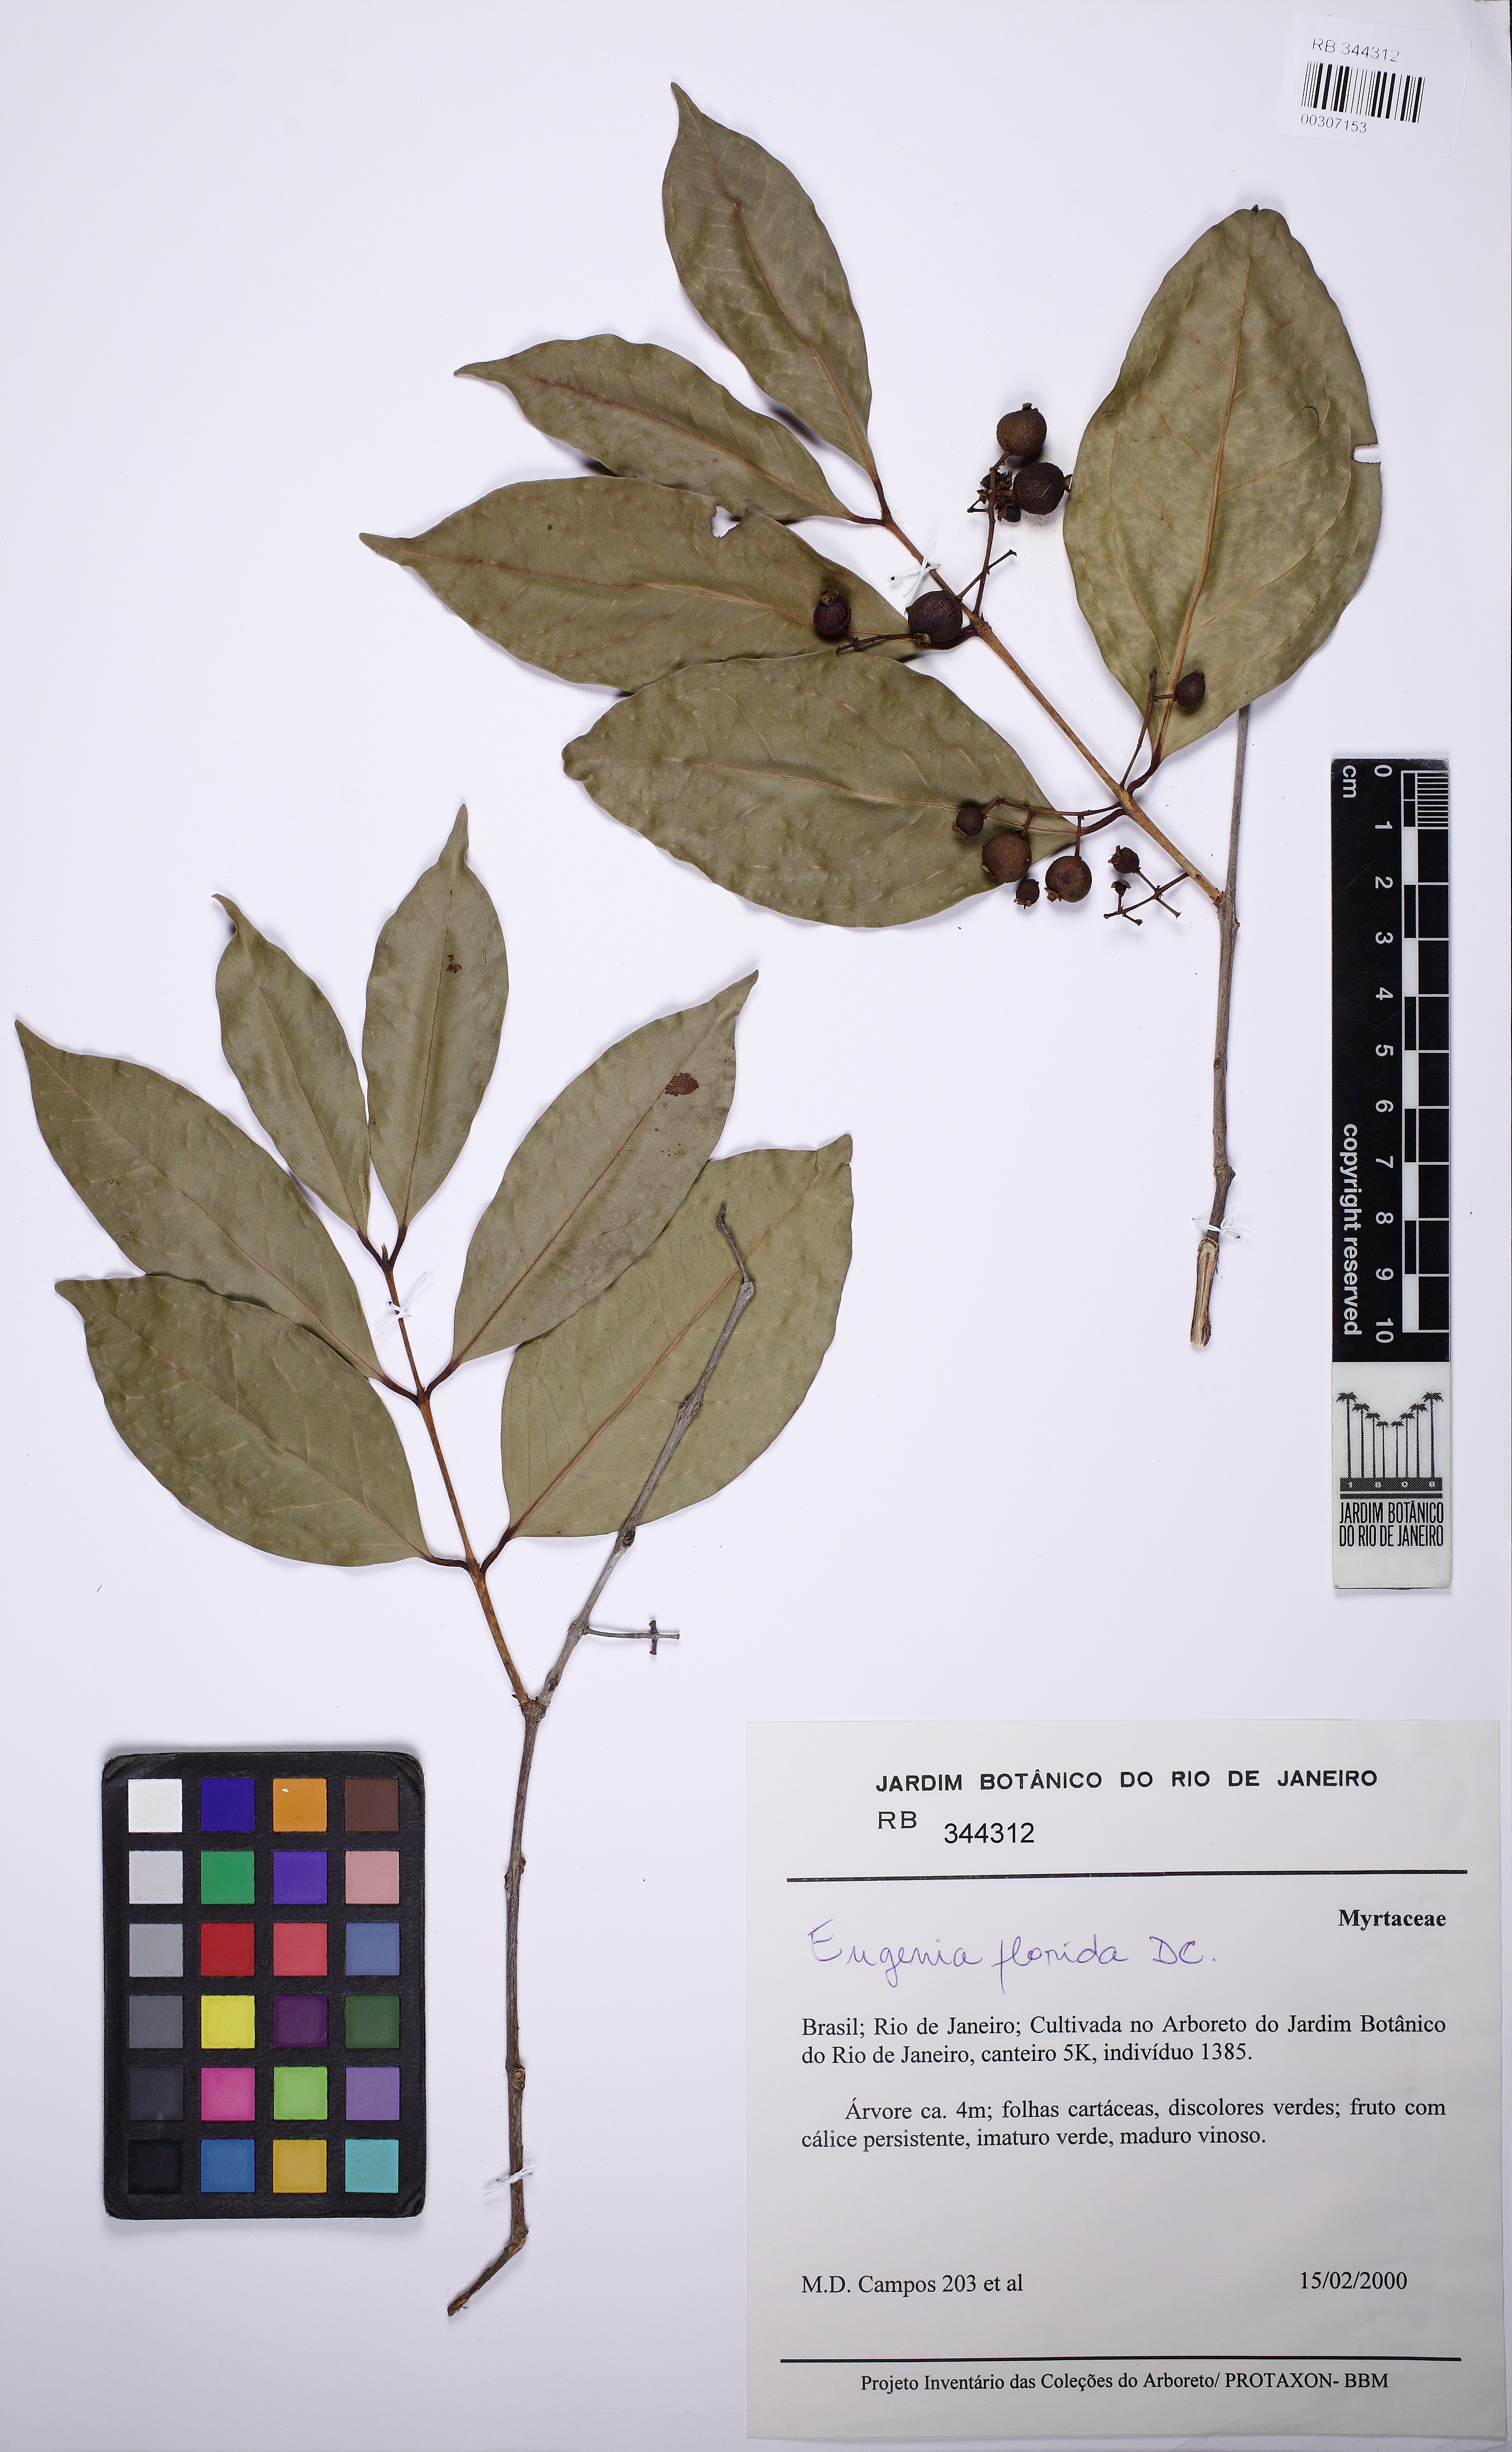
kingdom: Plantae
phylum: Tracheophyta
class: Magnoliopsida
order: Myrtales
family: Myrtaceae
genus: Eugenia
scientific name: Eugenia florida
